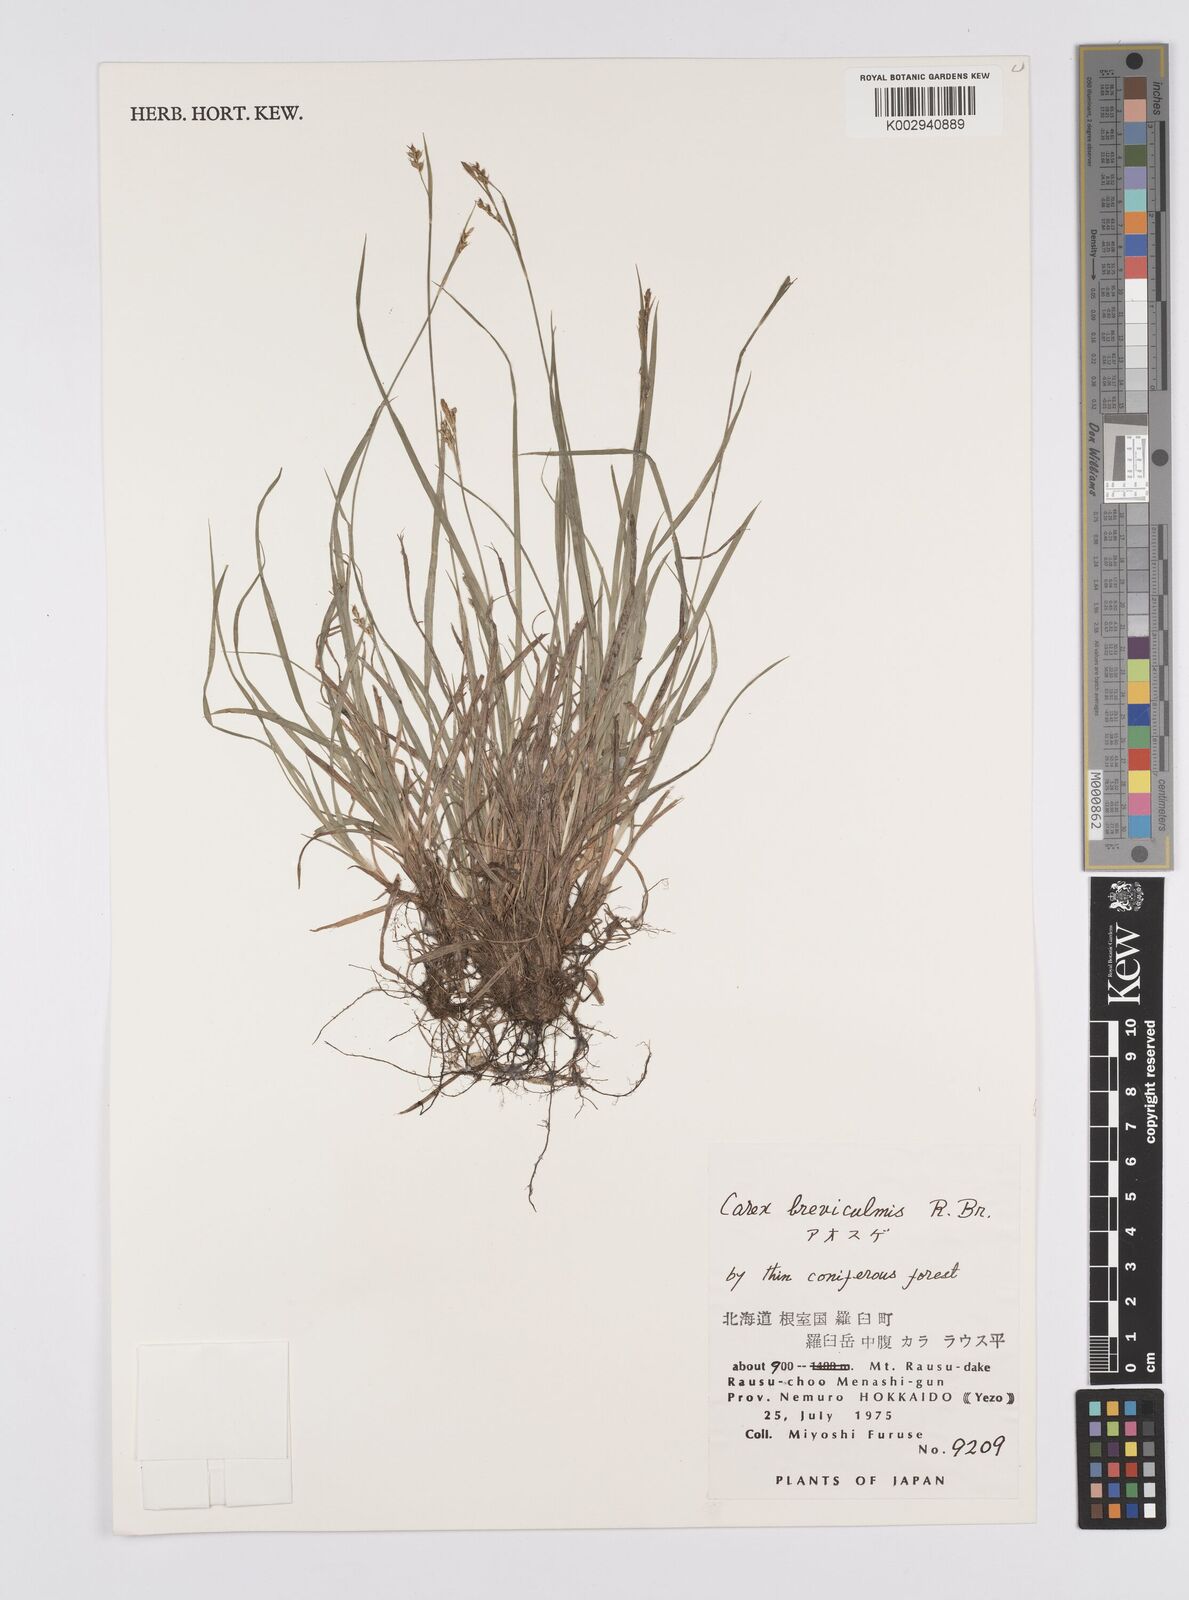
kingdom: Plantae
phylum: Tracheophyta
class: Liliopsida
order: Poales
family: Cyperaceae
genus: Carex
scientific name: Carex breviculmis
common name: Asian shortstem sedge
